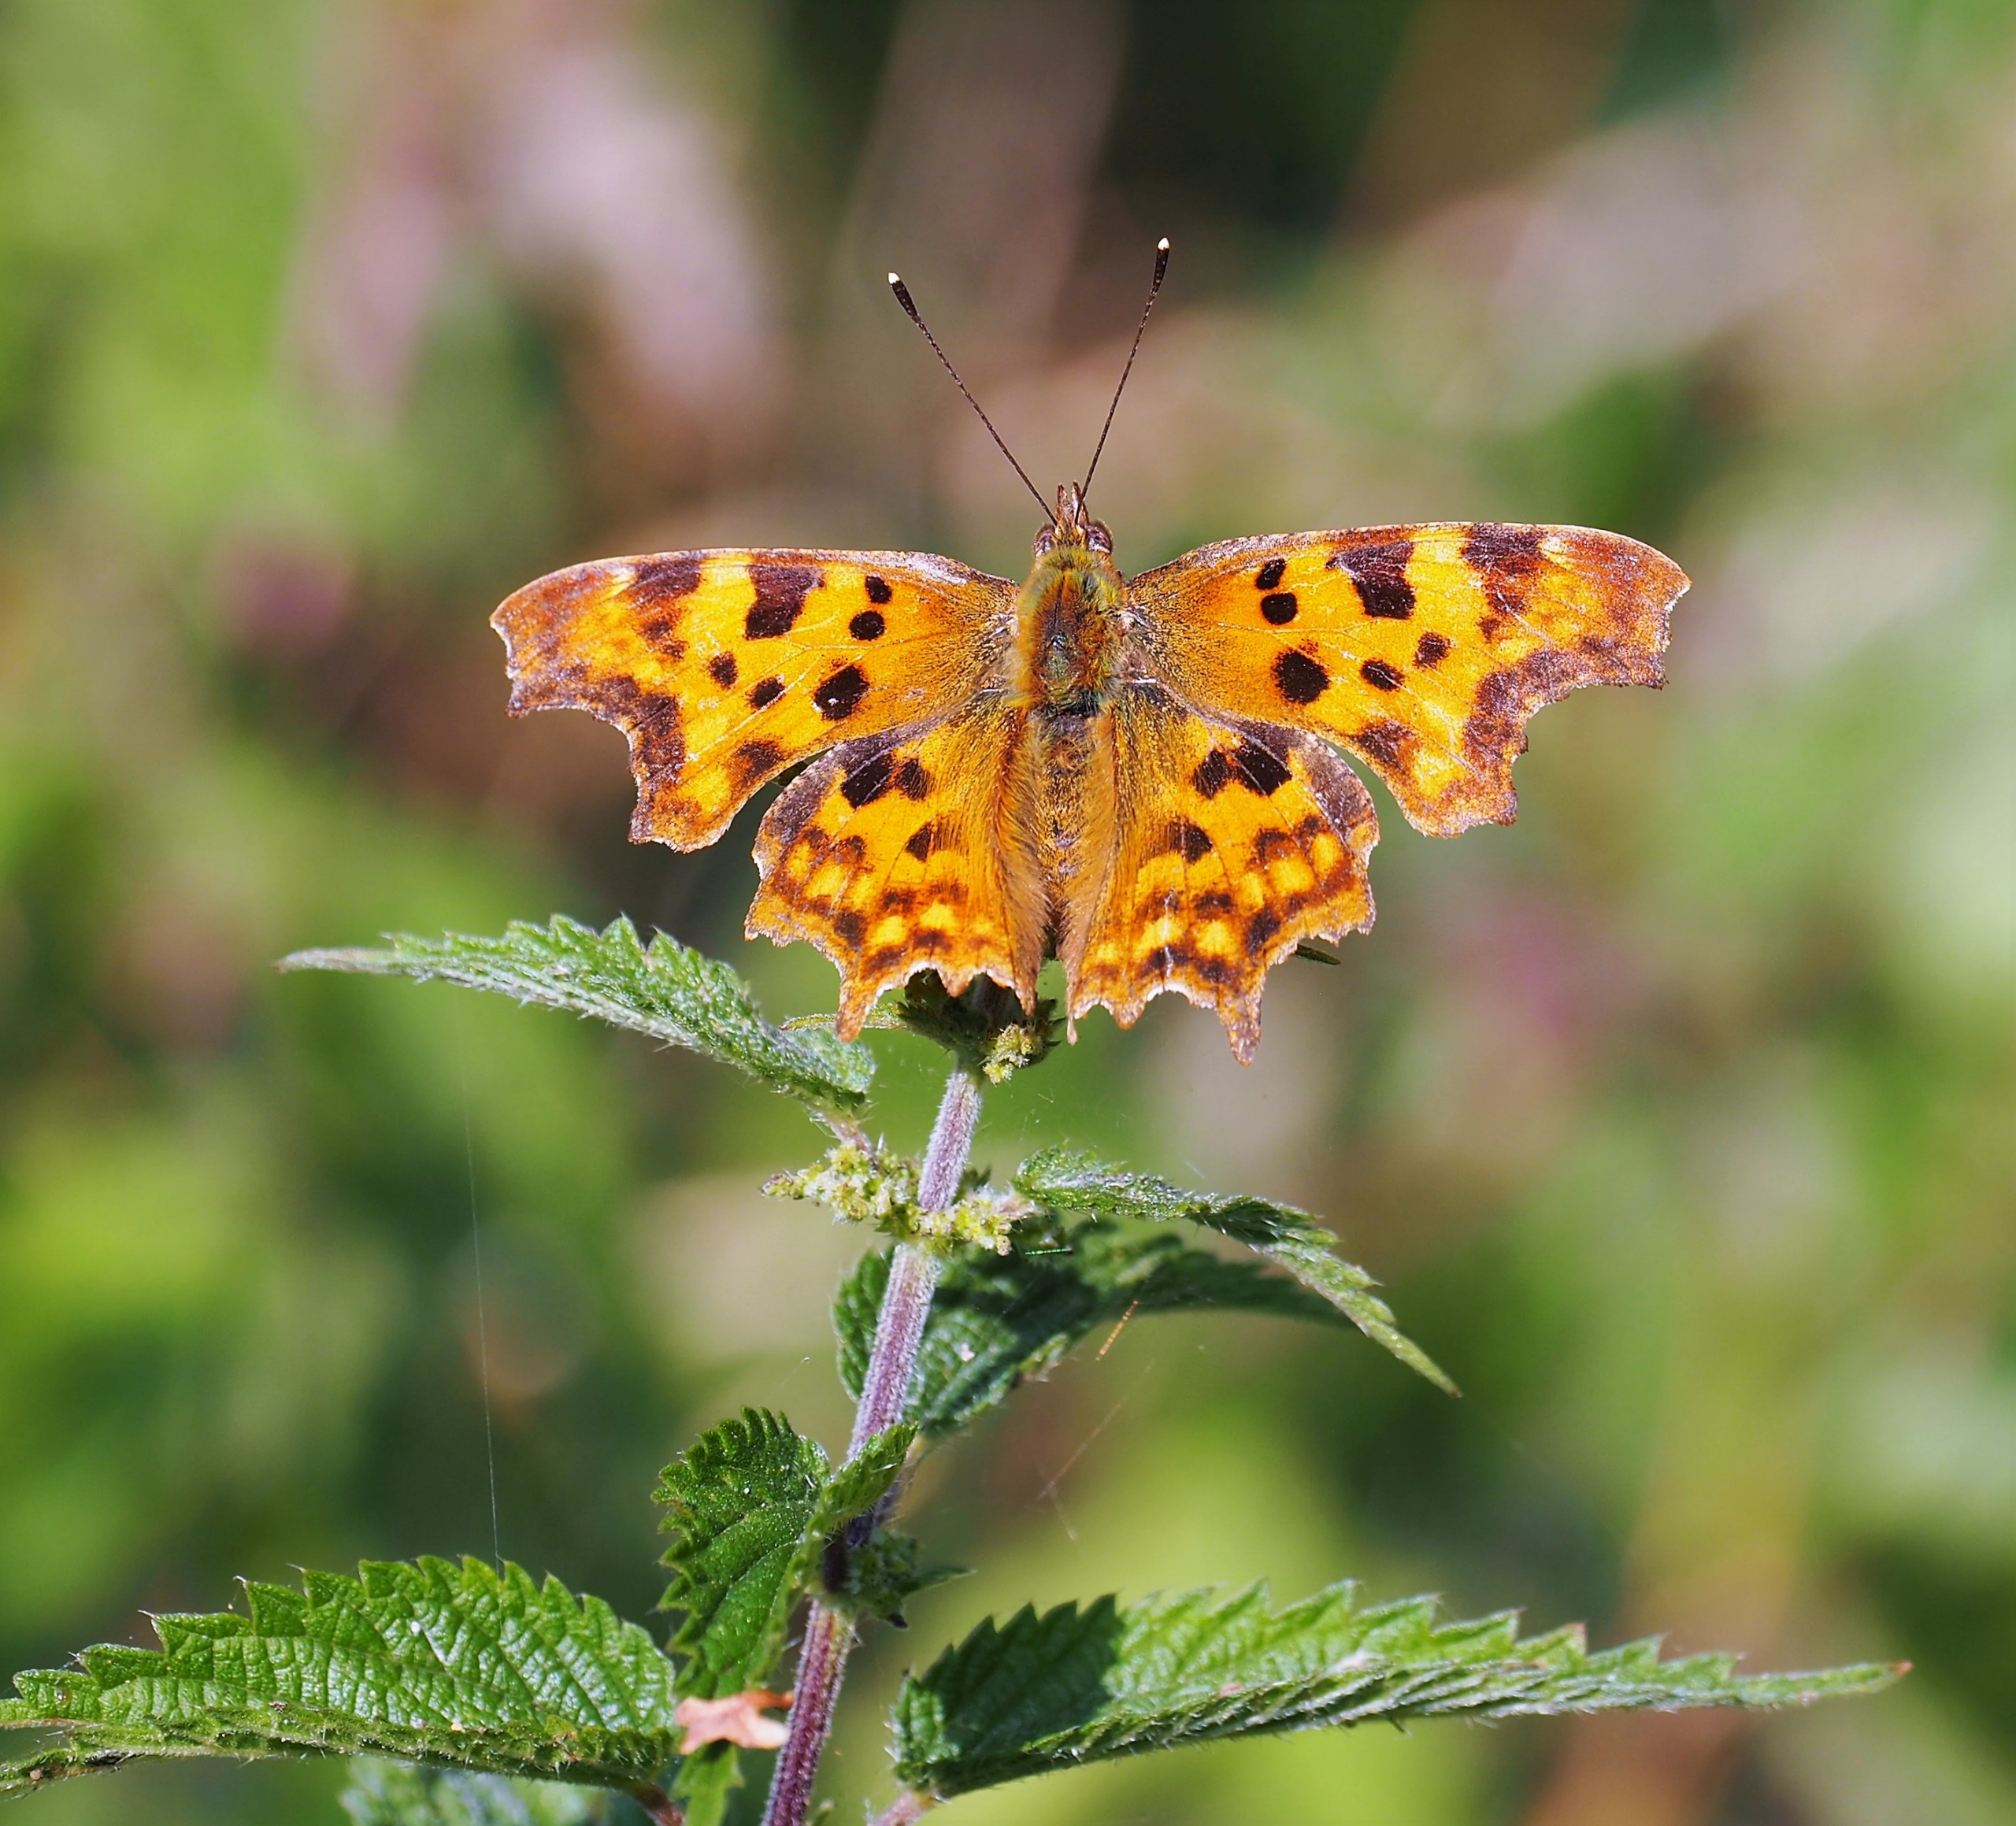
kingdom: Animalia
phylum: Arthropoda
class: Insecta
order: Lepidoptera
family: Nymphalidae
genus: Polygonia
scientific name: Polygonia c-album
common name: Det hvide C
